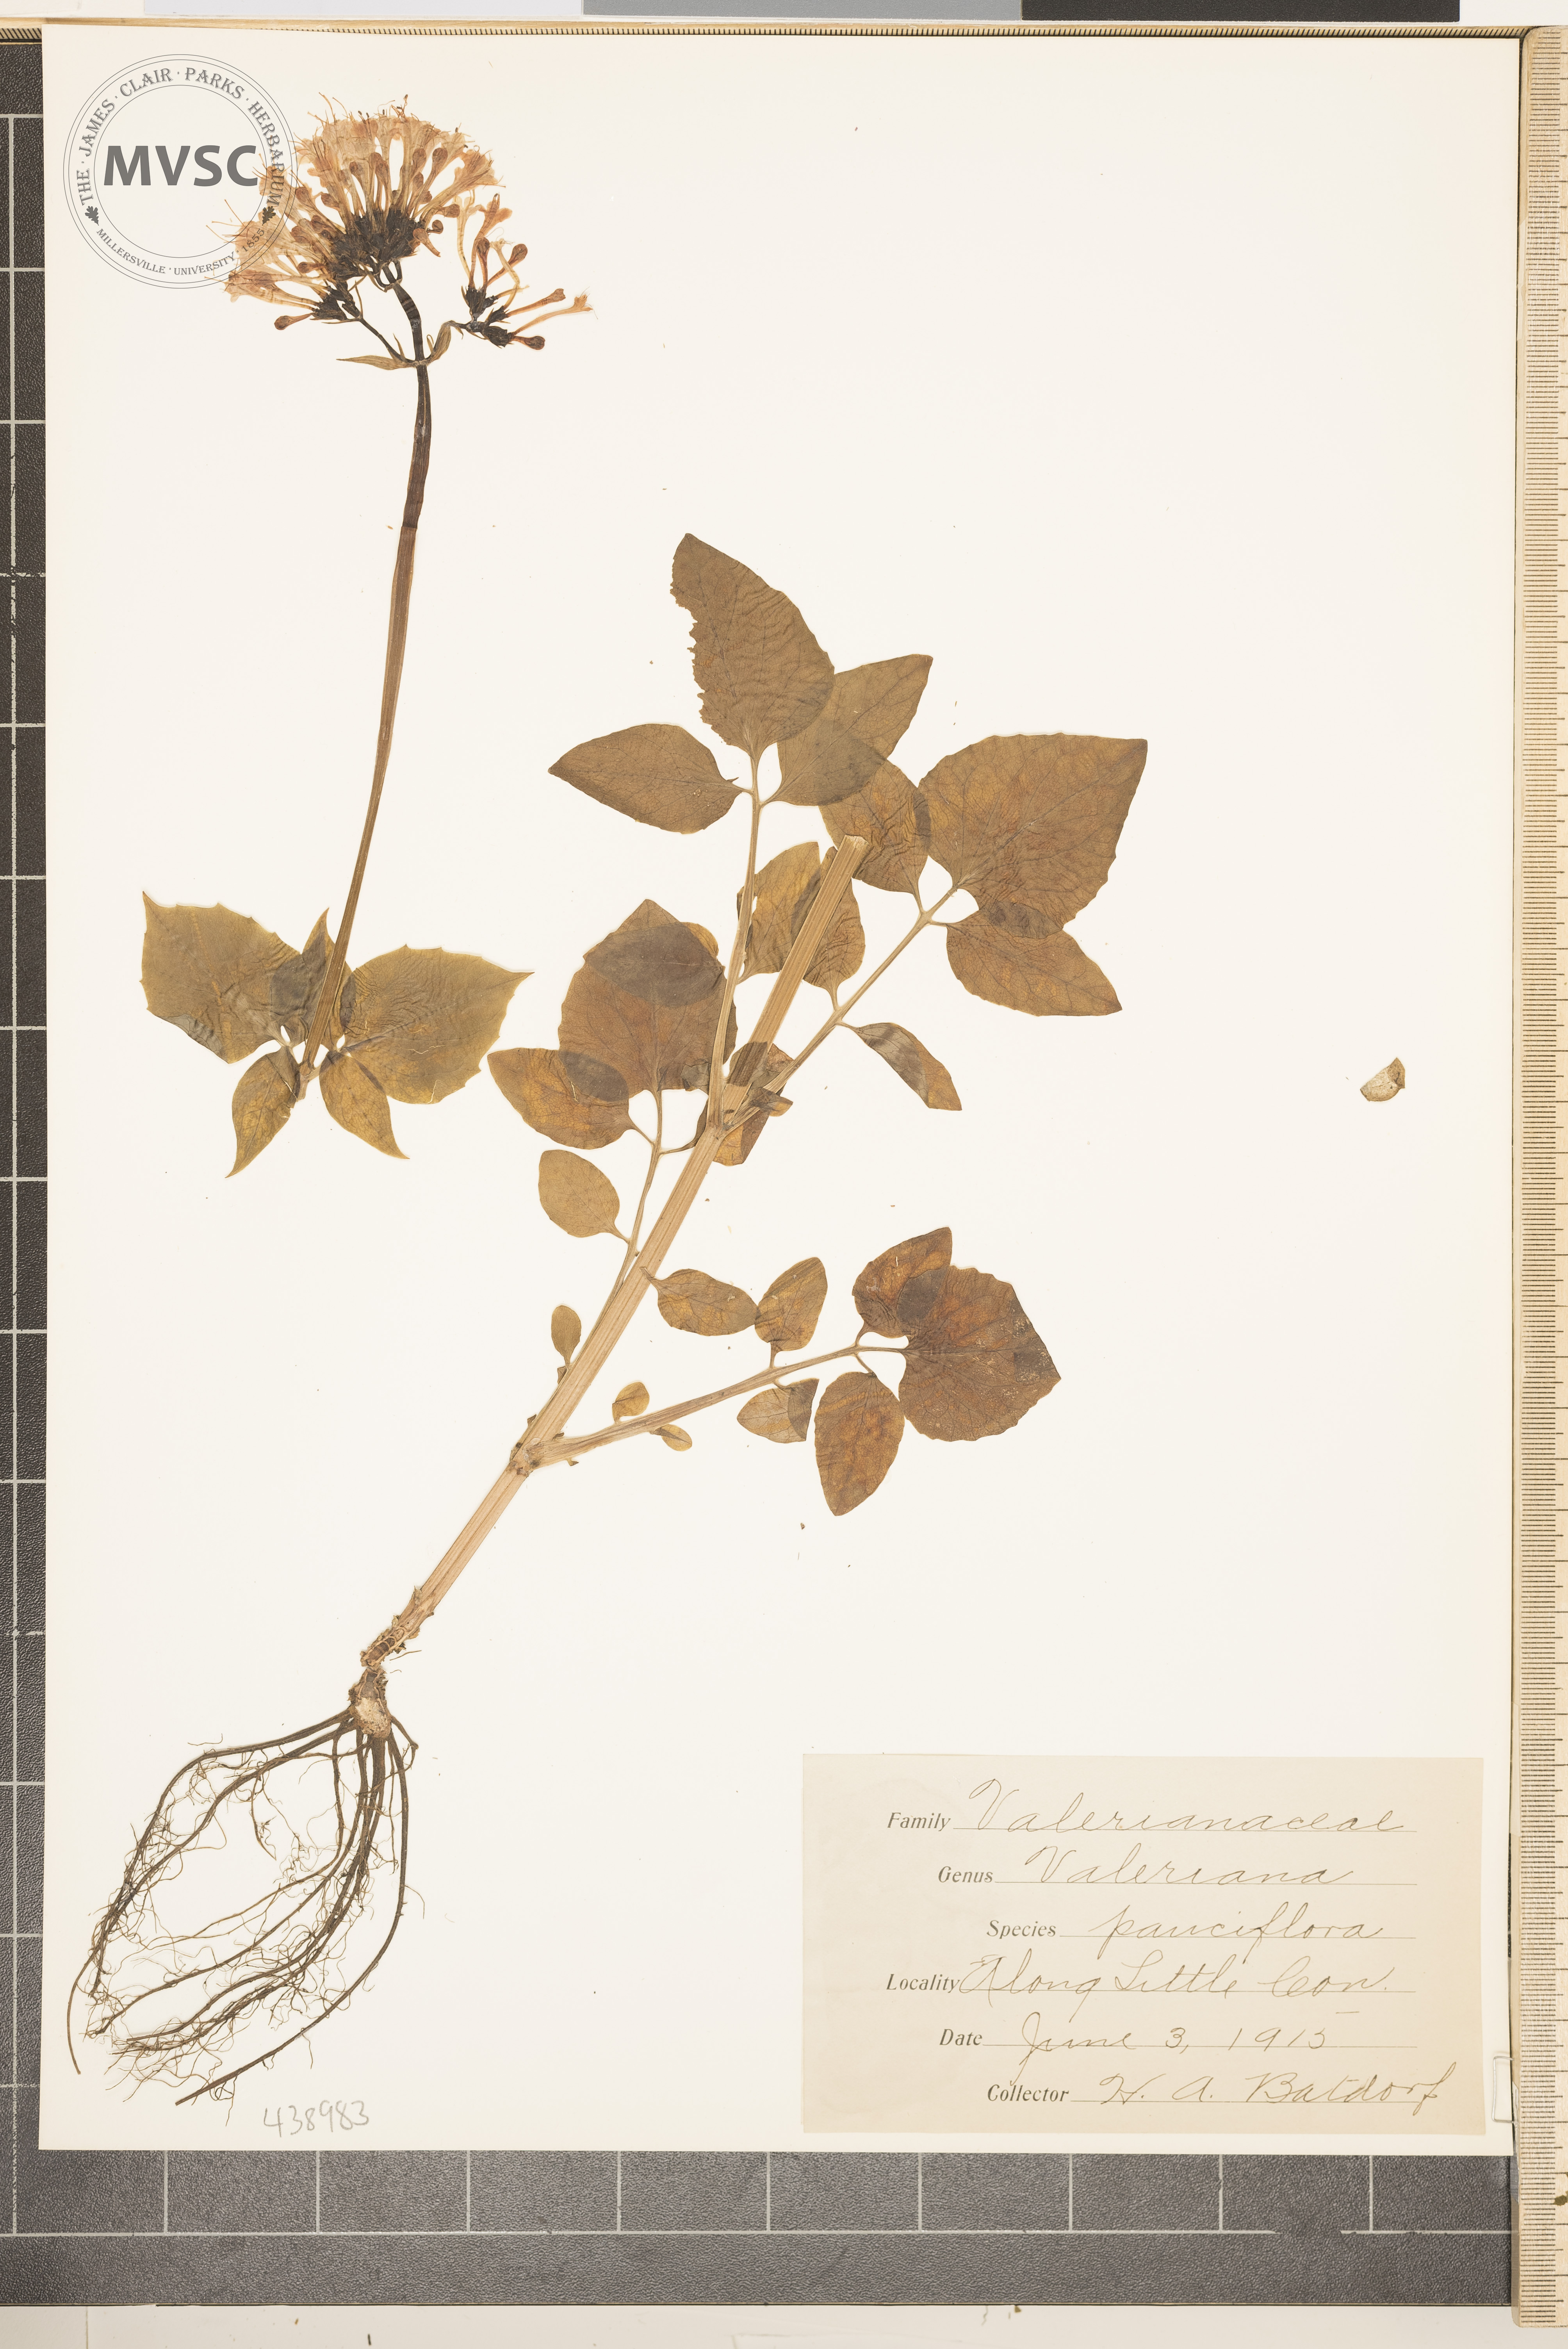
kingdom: Plantae
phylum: Tracheophyta
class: Magnoliopsida
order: Dipsacales
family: Caprifoliaceae
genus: Valeriana
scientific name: Valeriana pauciflora
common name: Long-tube valeriana
